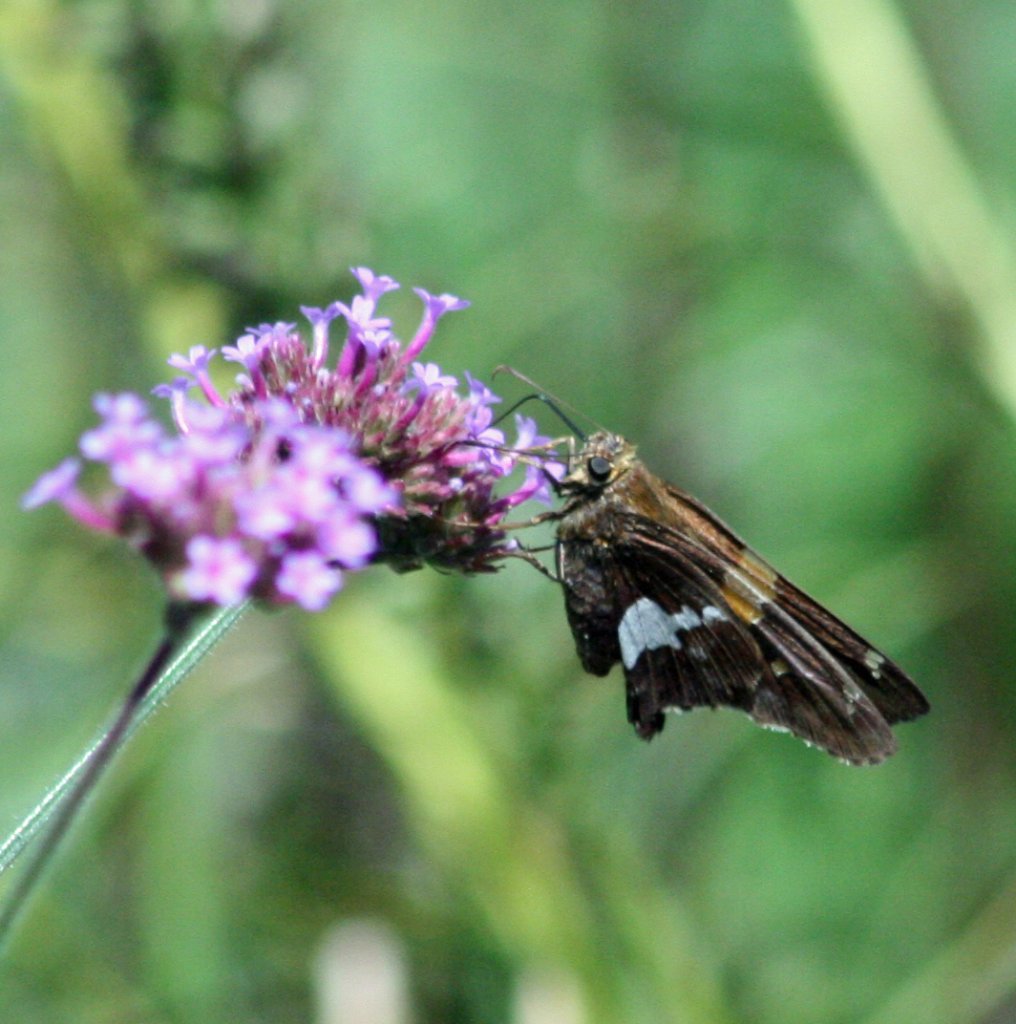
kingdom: Animalia
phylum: Arthropoda
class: Insecta
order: Lepidoptera
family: Hesperiidae
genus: Epargyreus
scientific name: Epargyreus clarus
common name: Silver-spotted Skipper
